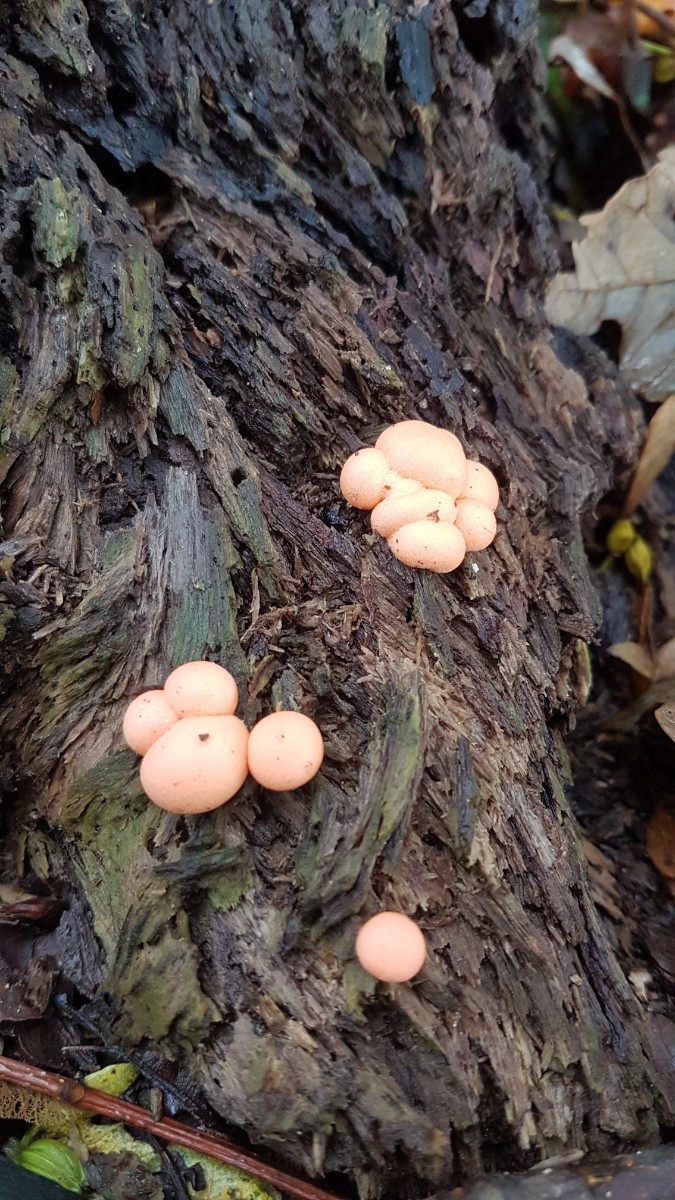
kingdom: Protozoa
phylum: Mycetozoa
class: Myxomycetes
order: Cribrariales
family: Tubiferaceae
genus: Lycogala
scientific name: Lycogala epidendrum
